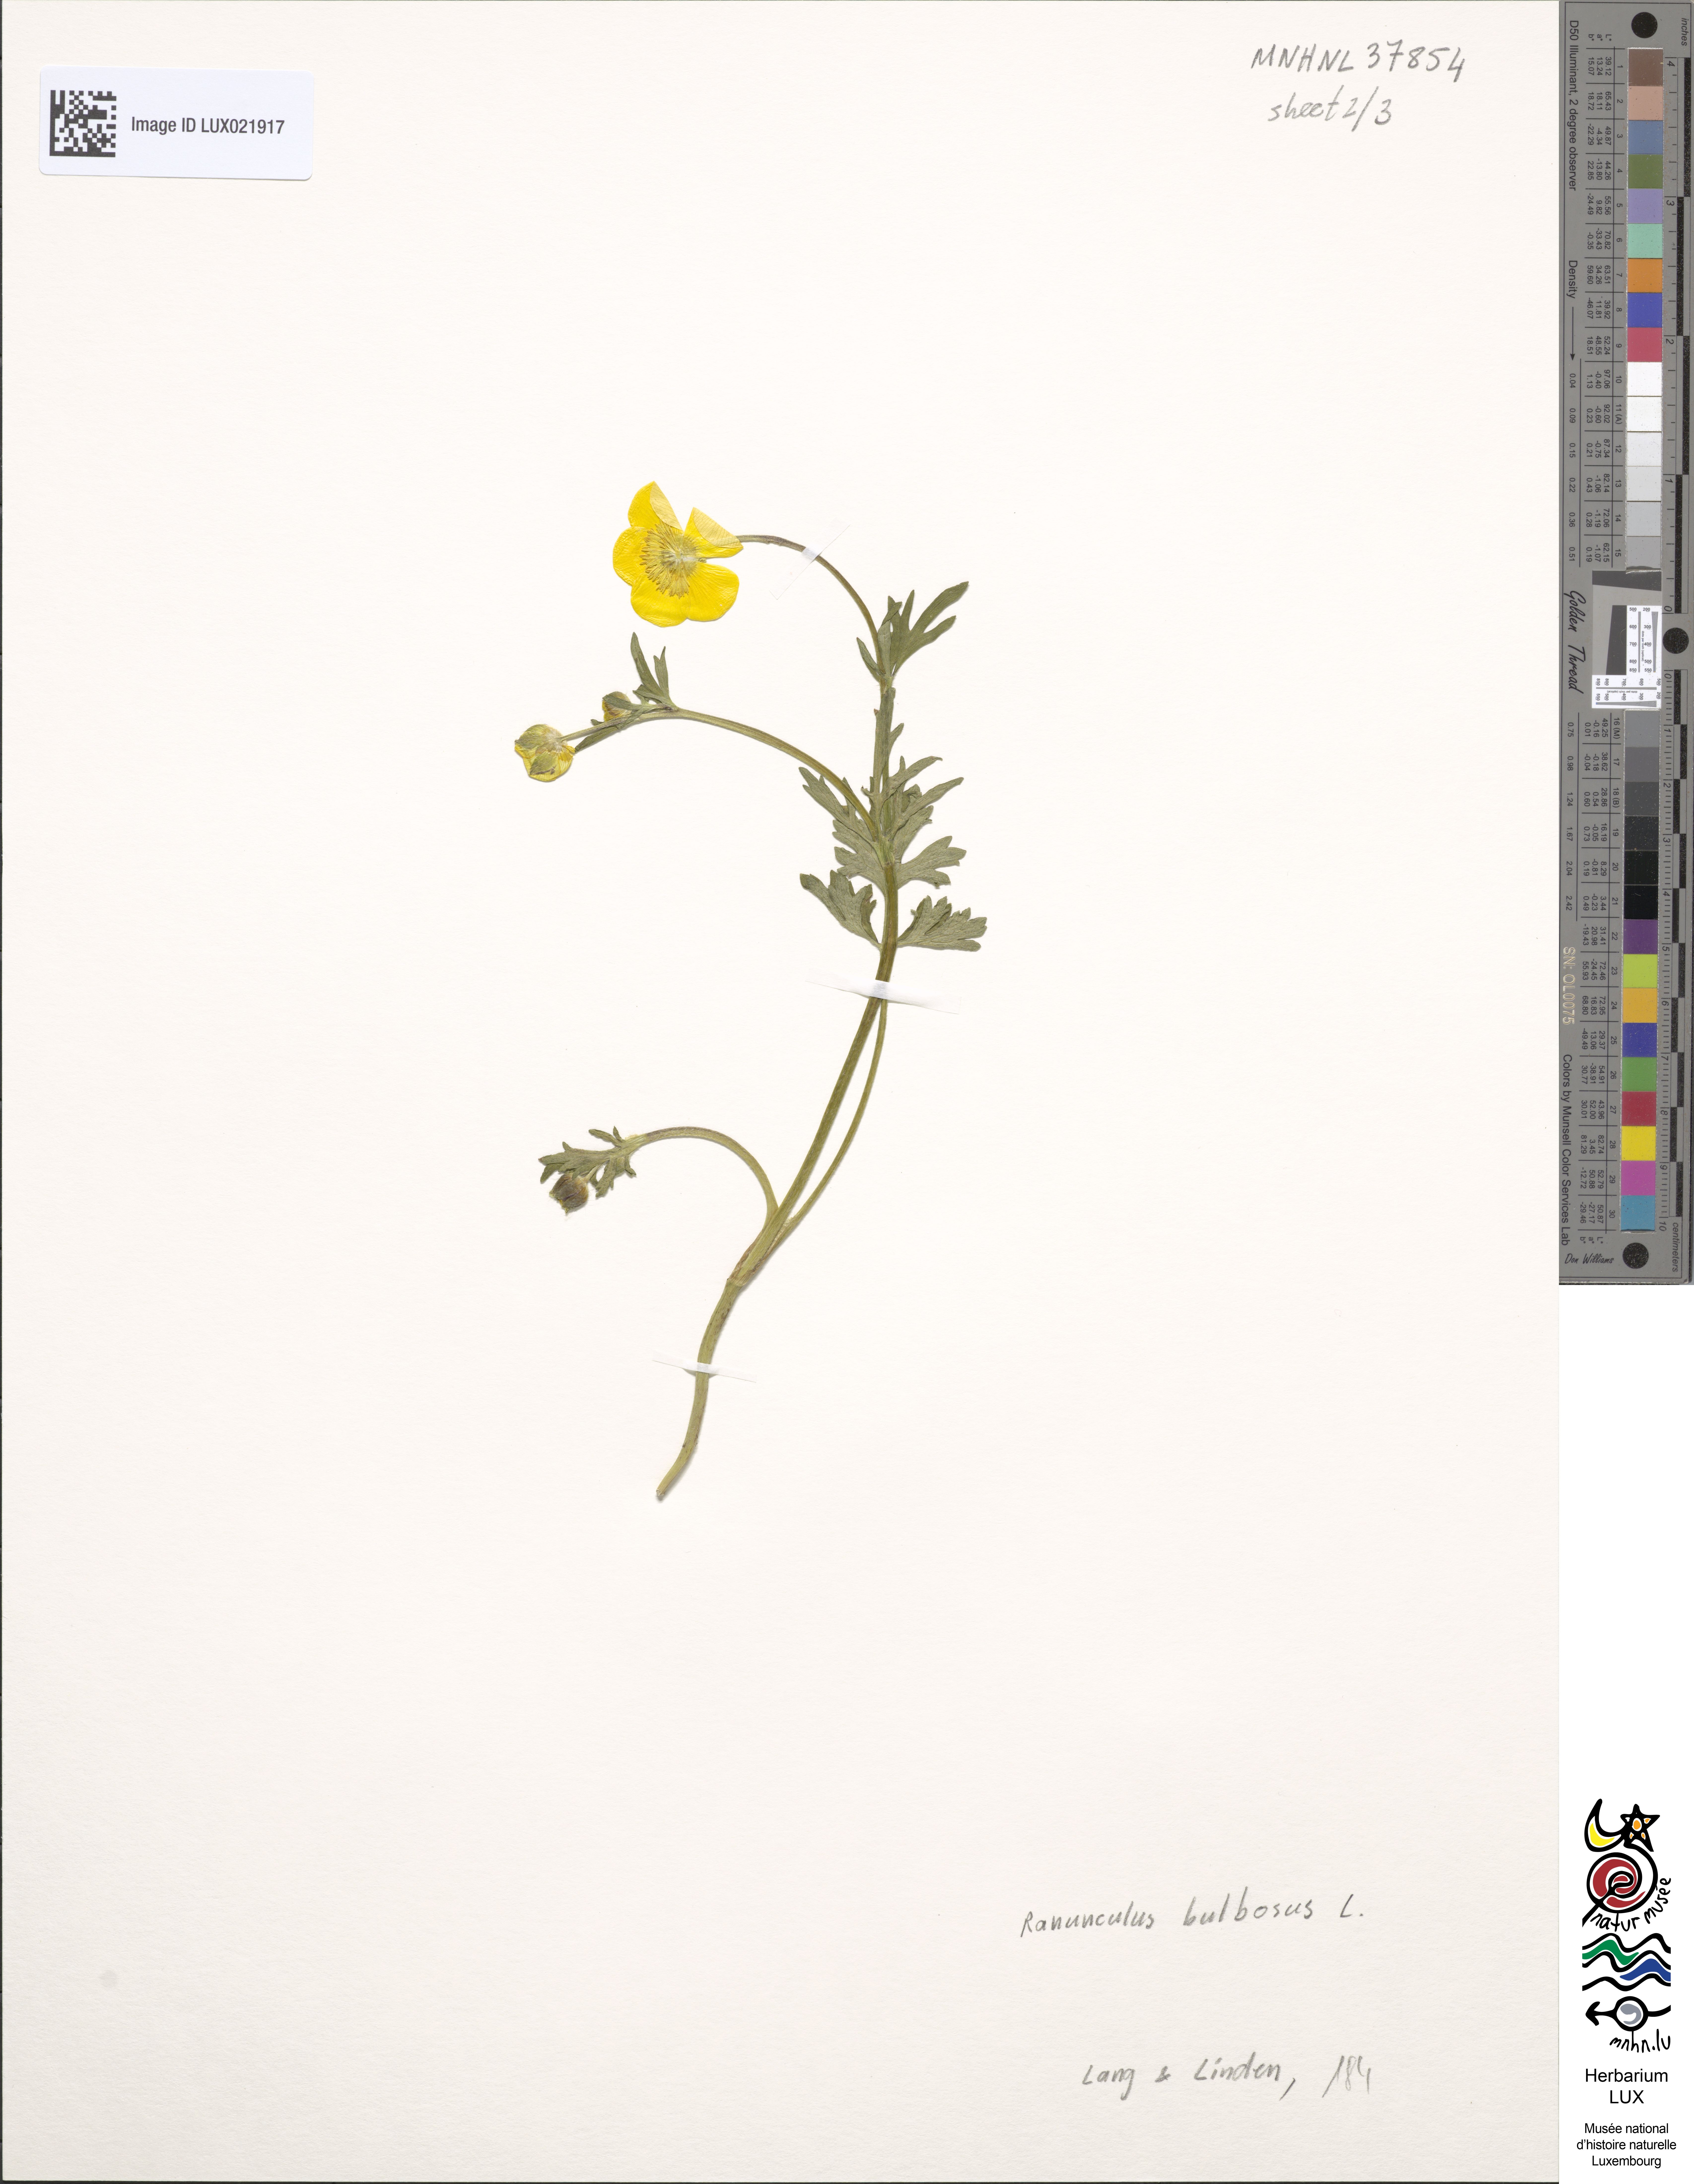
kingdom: Plantae
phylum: Tracheophyta
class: Magnoliopsida
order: Ranunculales
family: Ranunculaceae
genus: Ranunculus
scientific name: Ranunculus bulbosus
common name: Bulbous buttercup
